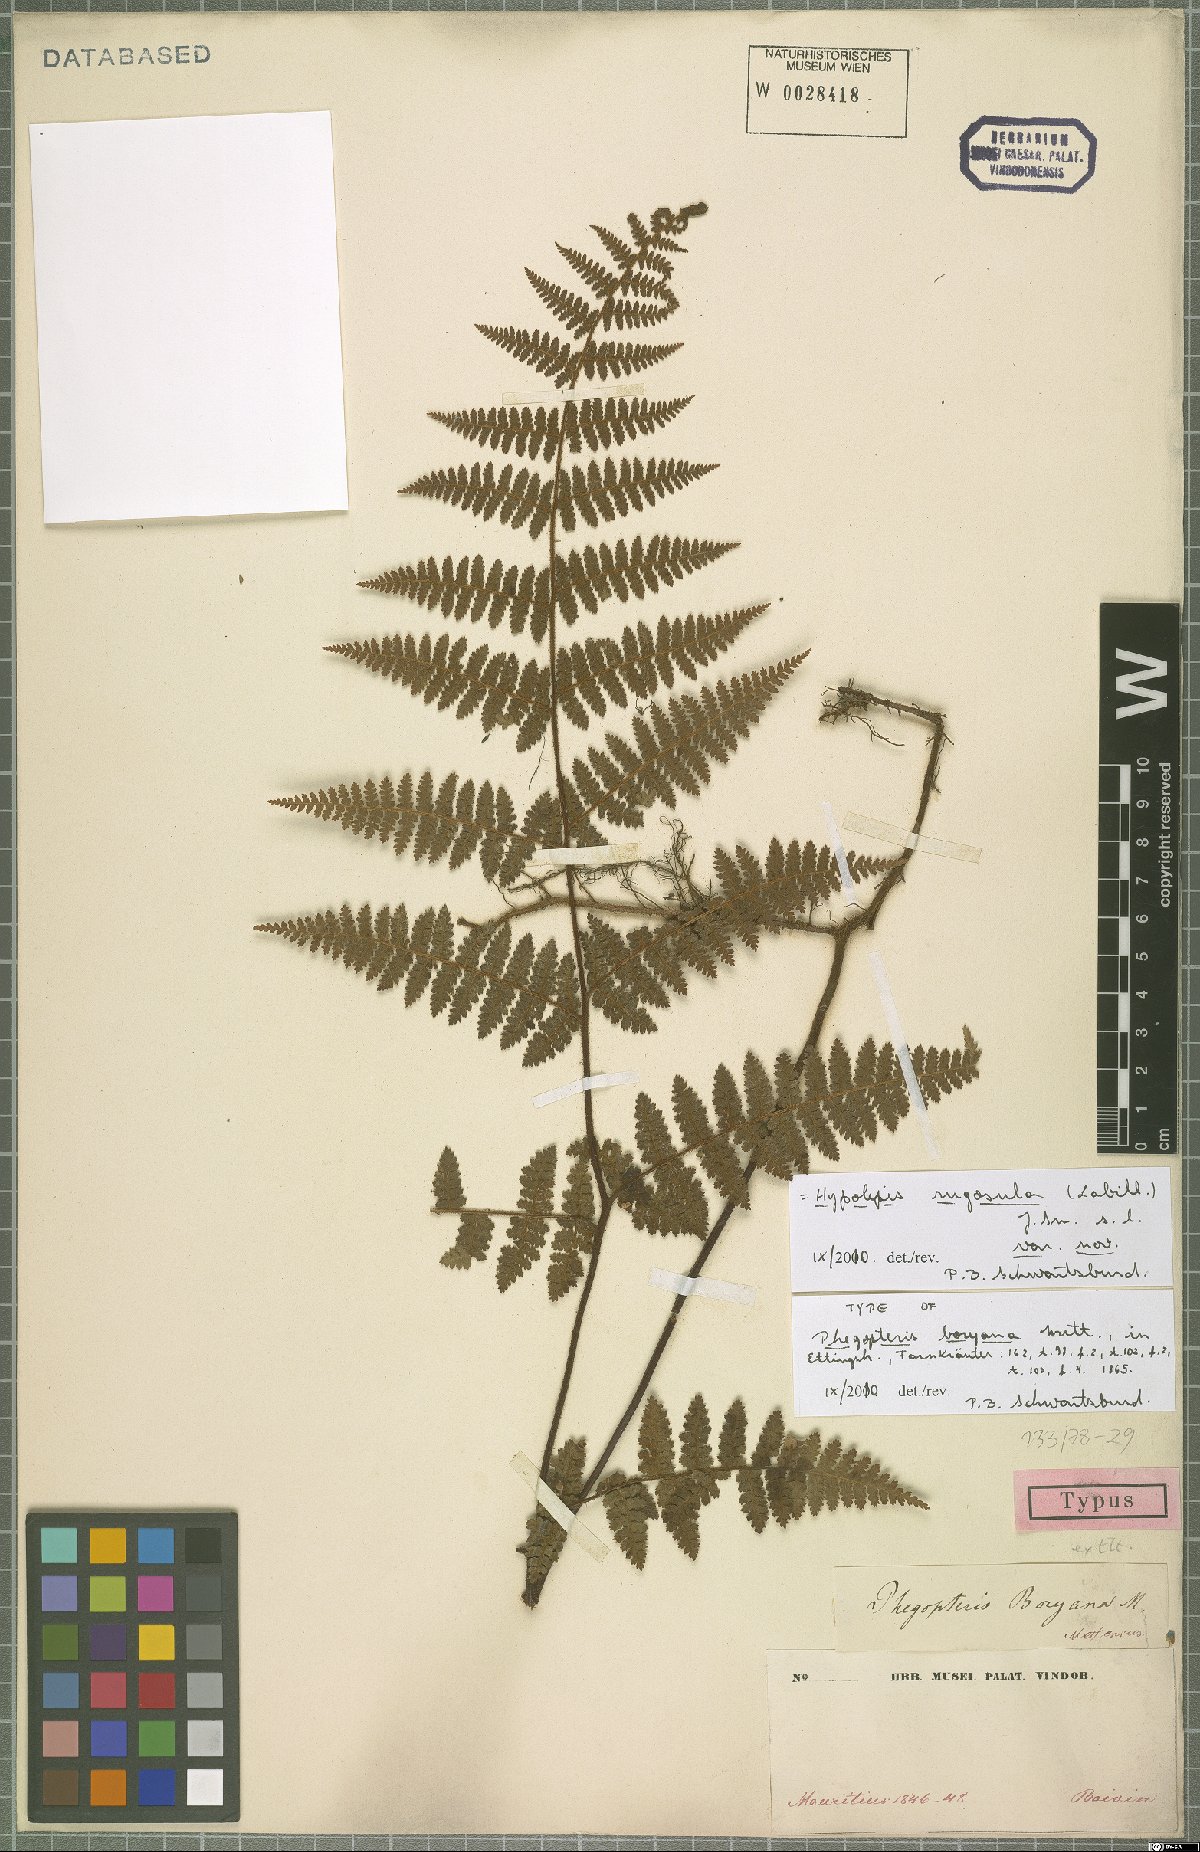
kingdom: Plantae
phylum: Tracheophyta
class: Polypodiopsida
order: Polypodiales
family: Dennstaedtiaceae
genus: Hypolepis
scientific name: Hypolepis rugosula
